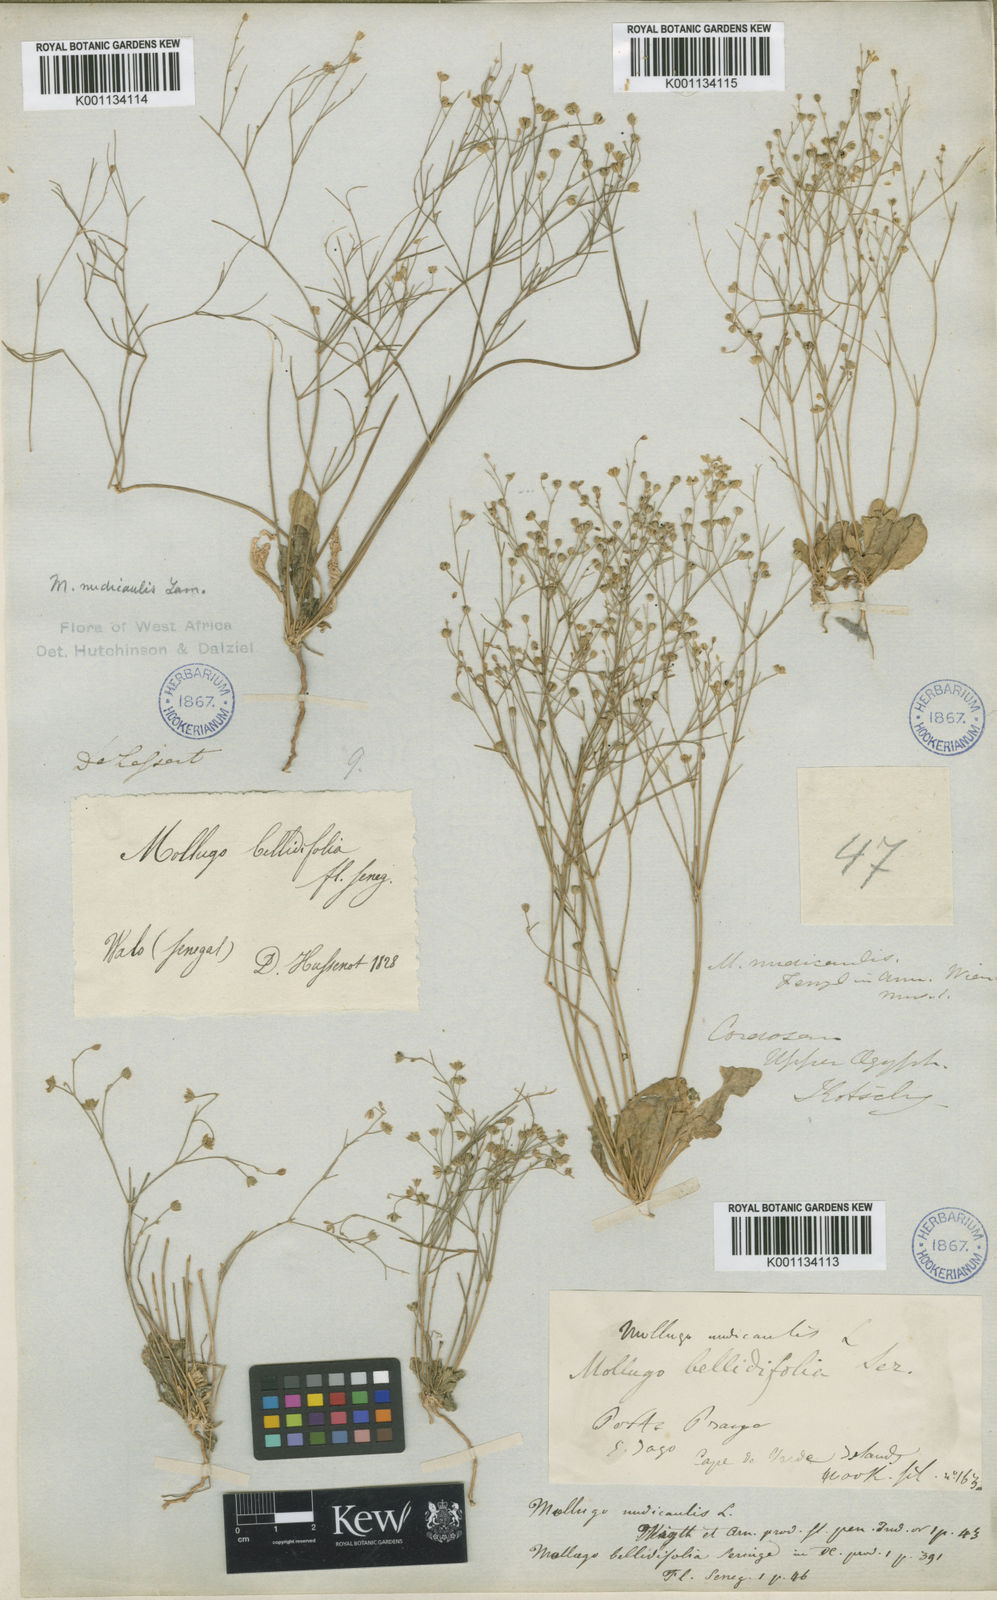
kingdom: Plantae
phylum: Tracheophyta
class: Magnoliopsida
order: Caryophyllales
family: Molluginaceae
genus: Paramollugo
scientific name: Paramollugo nudicaulis
